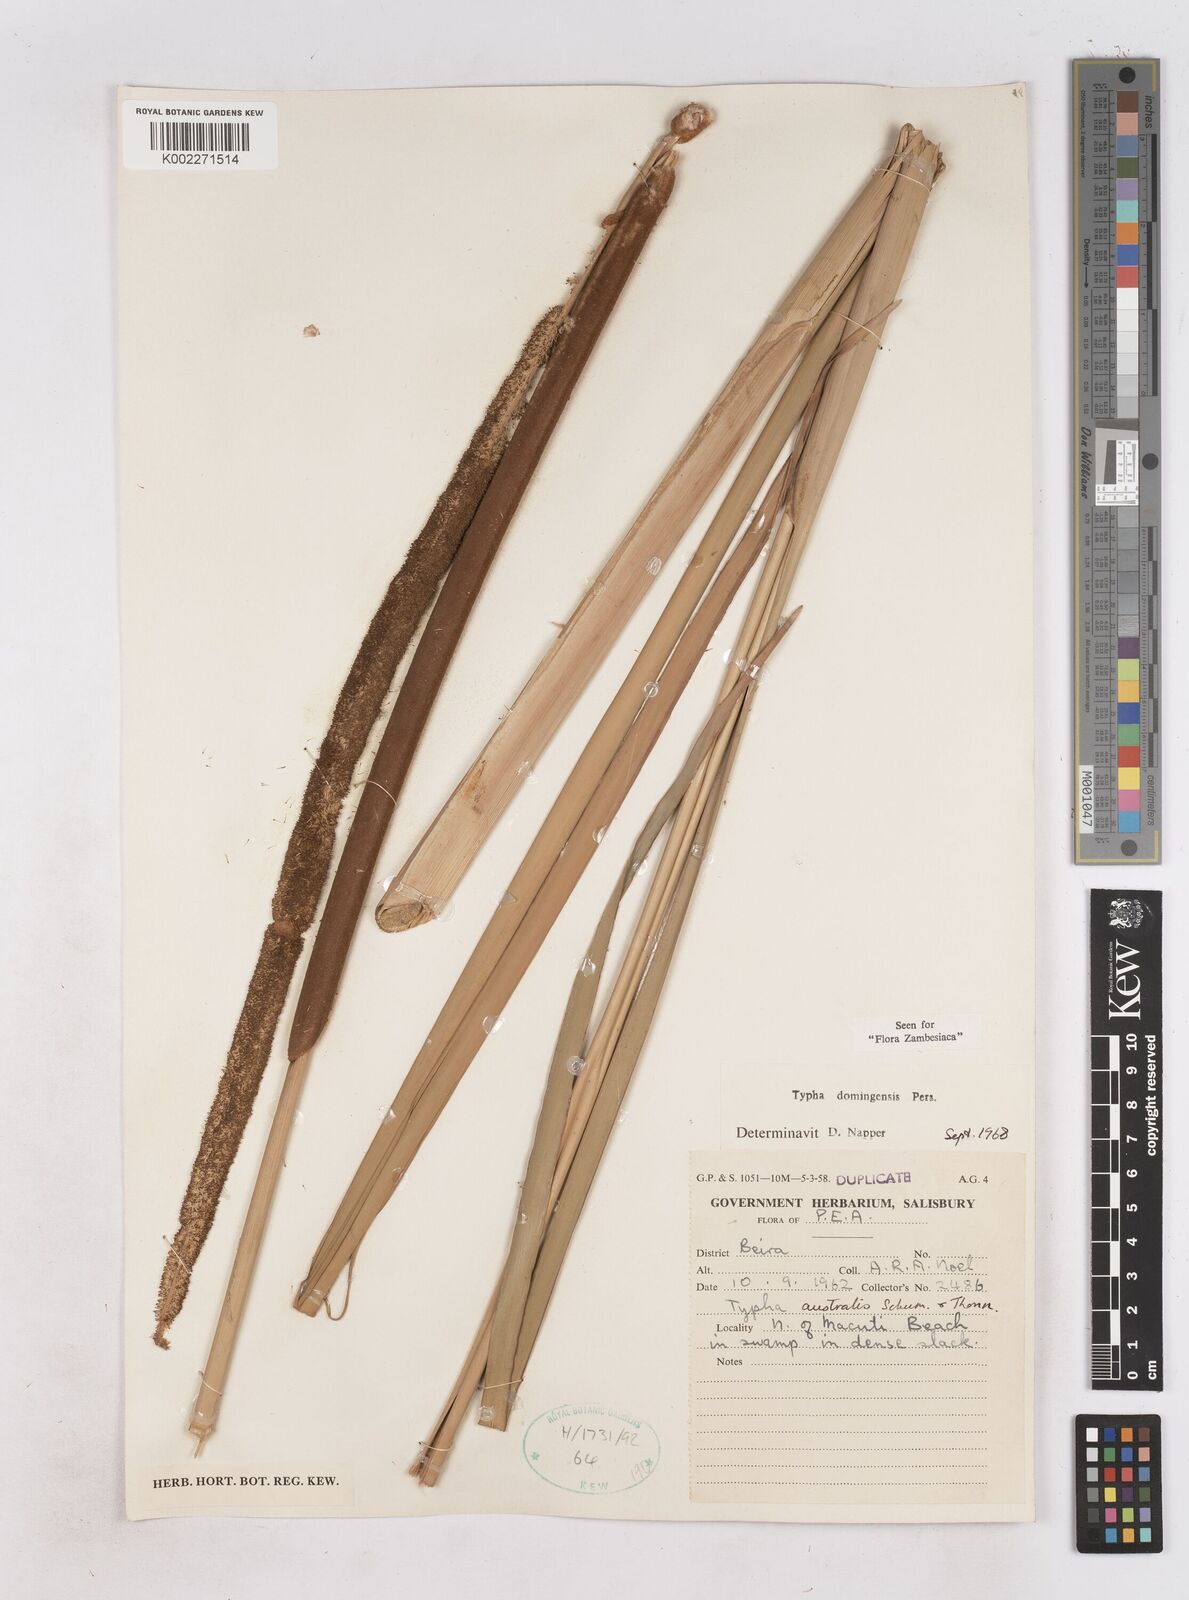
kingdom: Plantae
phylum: Tracheophyta
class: Liliopsida
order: Poales
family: Typhaceae
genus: Typha
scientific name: Typha domingensis
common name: Southern cattail
